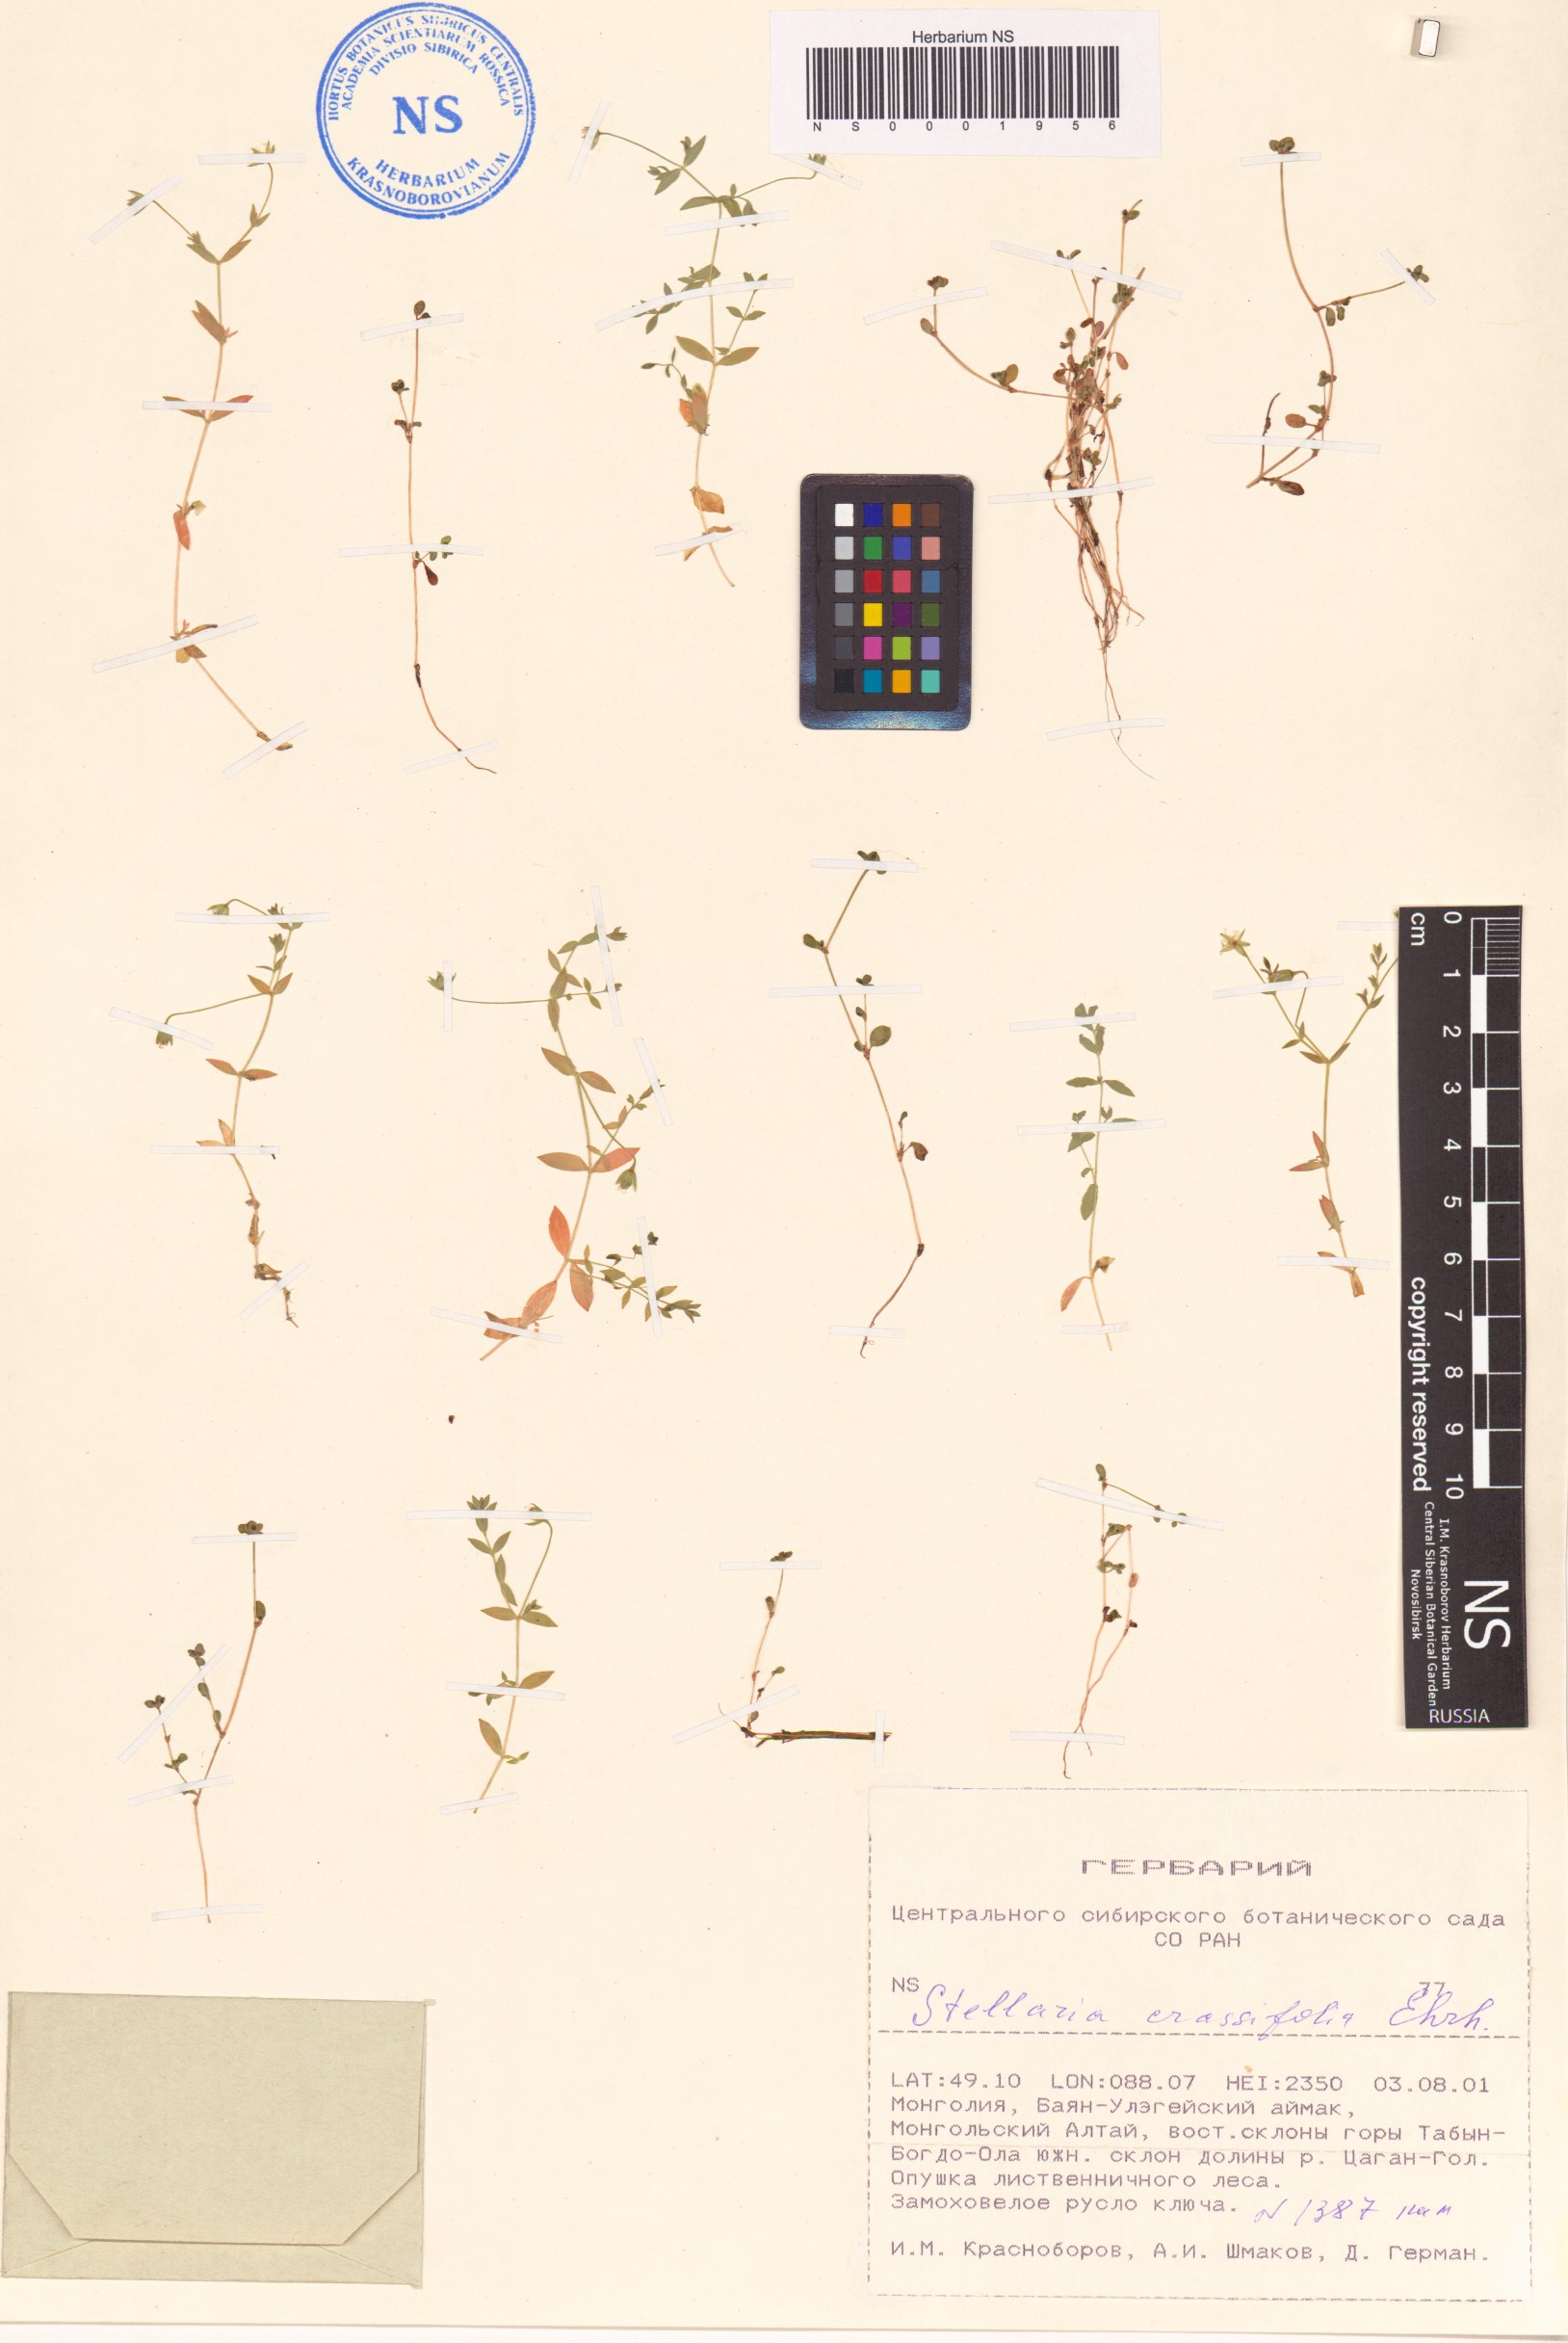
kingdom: Plantae
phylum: Tracheophyta
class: Magnoliopsida
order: Caryophyllales
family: Caryophyllaceae
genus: Stellaria
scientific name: Stellaria crassifolia
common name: Fleshy starwort
